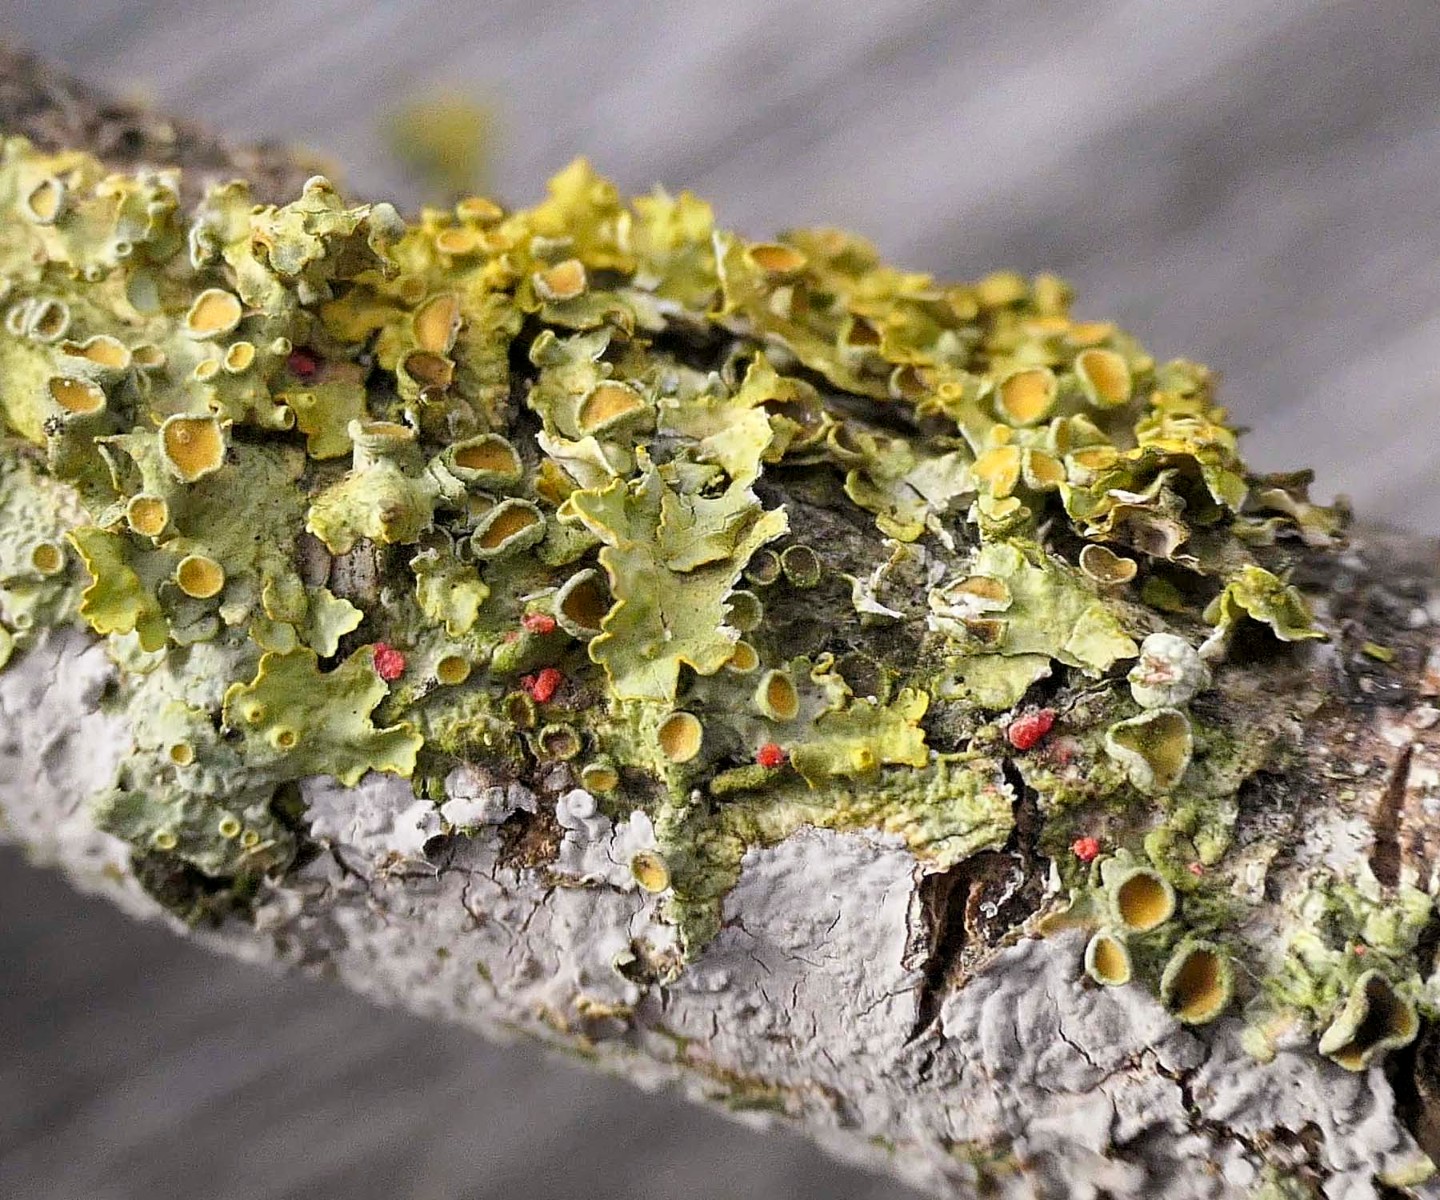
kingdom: Fungi
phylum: Ascomycota
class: Sordariomycetes
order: Hypocreales
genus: Illosporiopsis
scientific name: Illosporiopsis christiansenii
